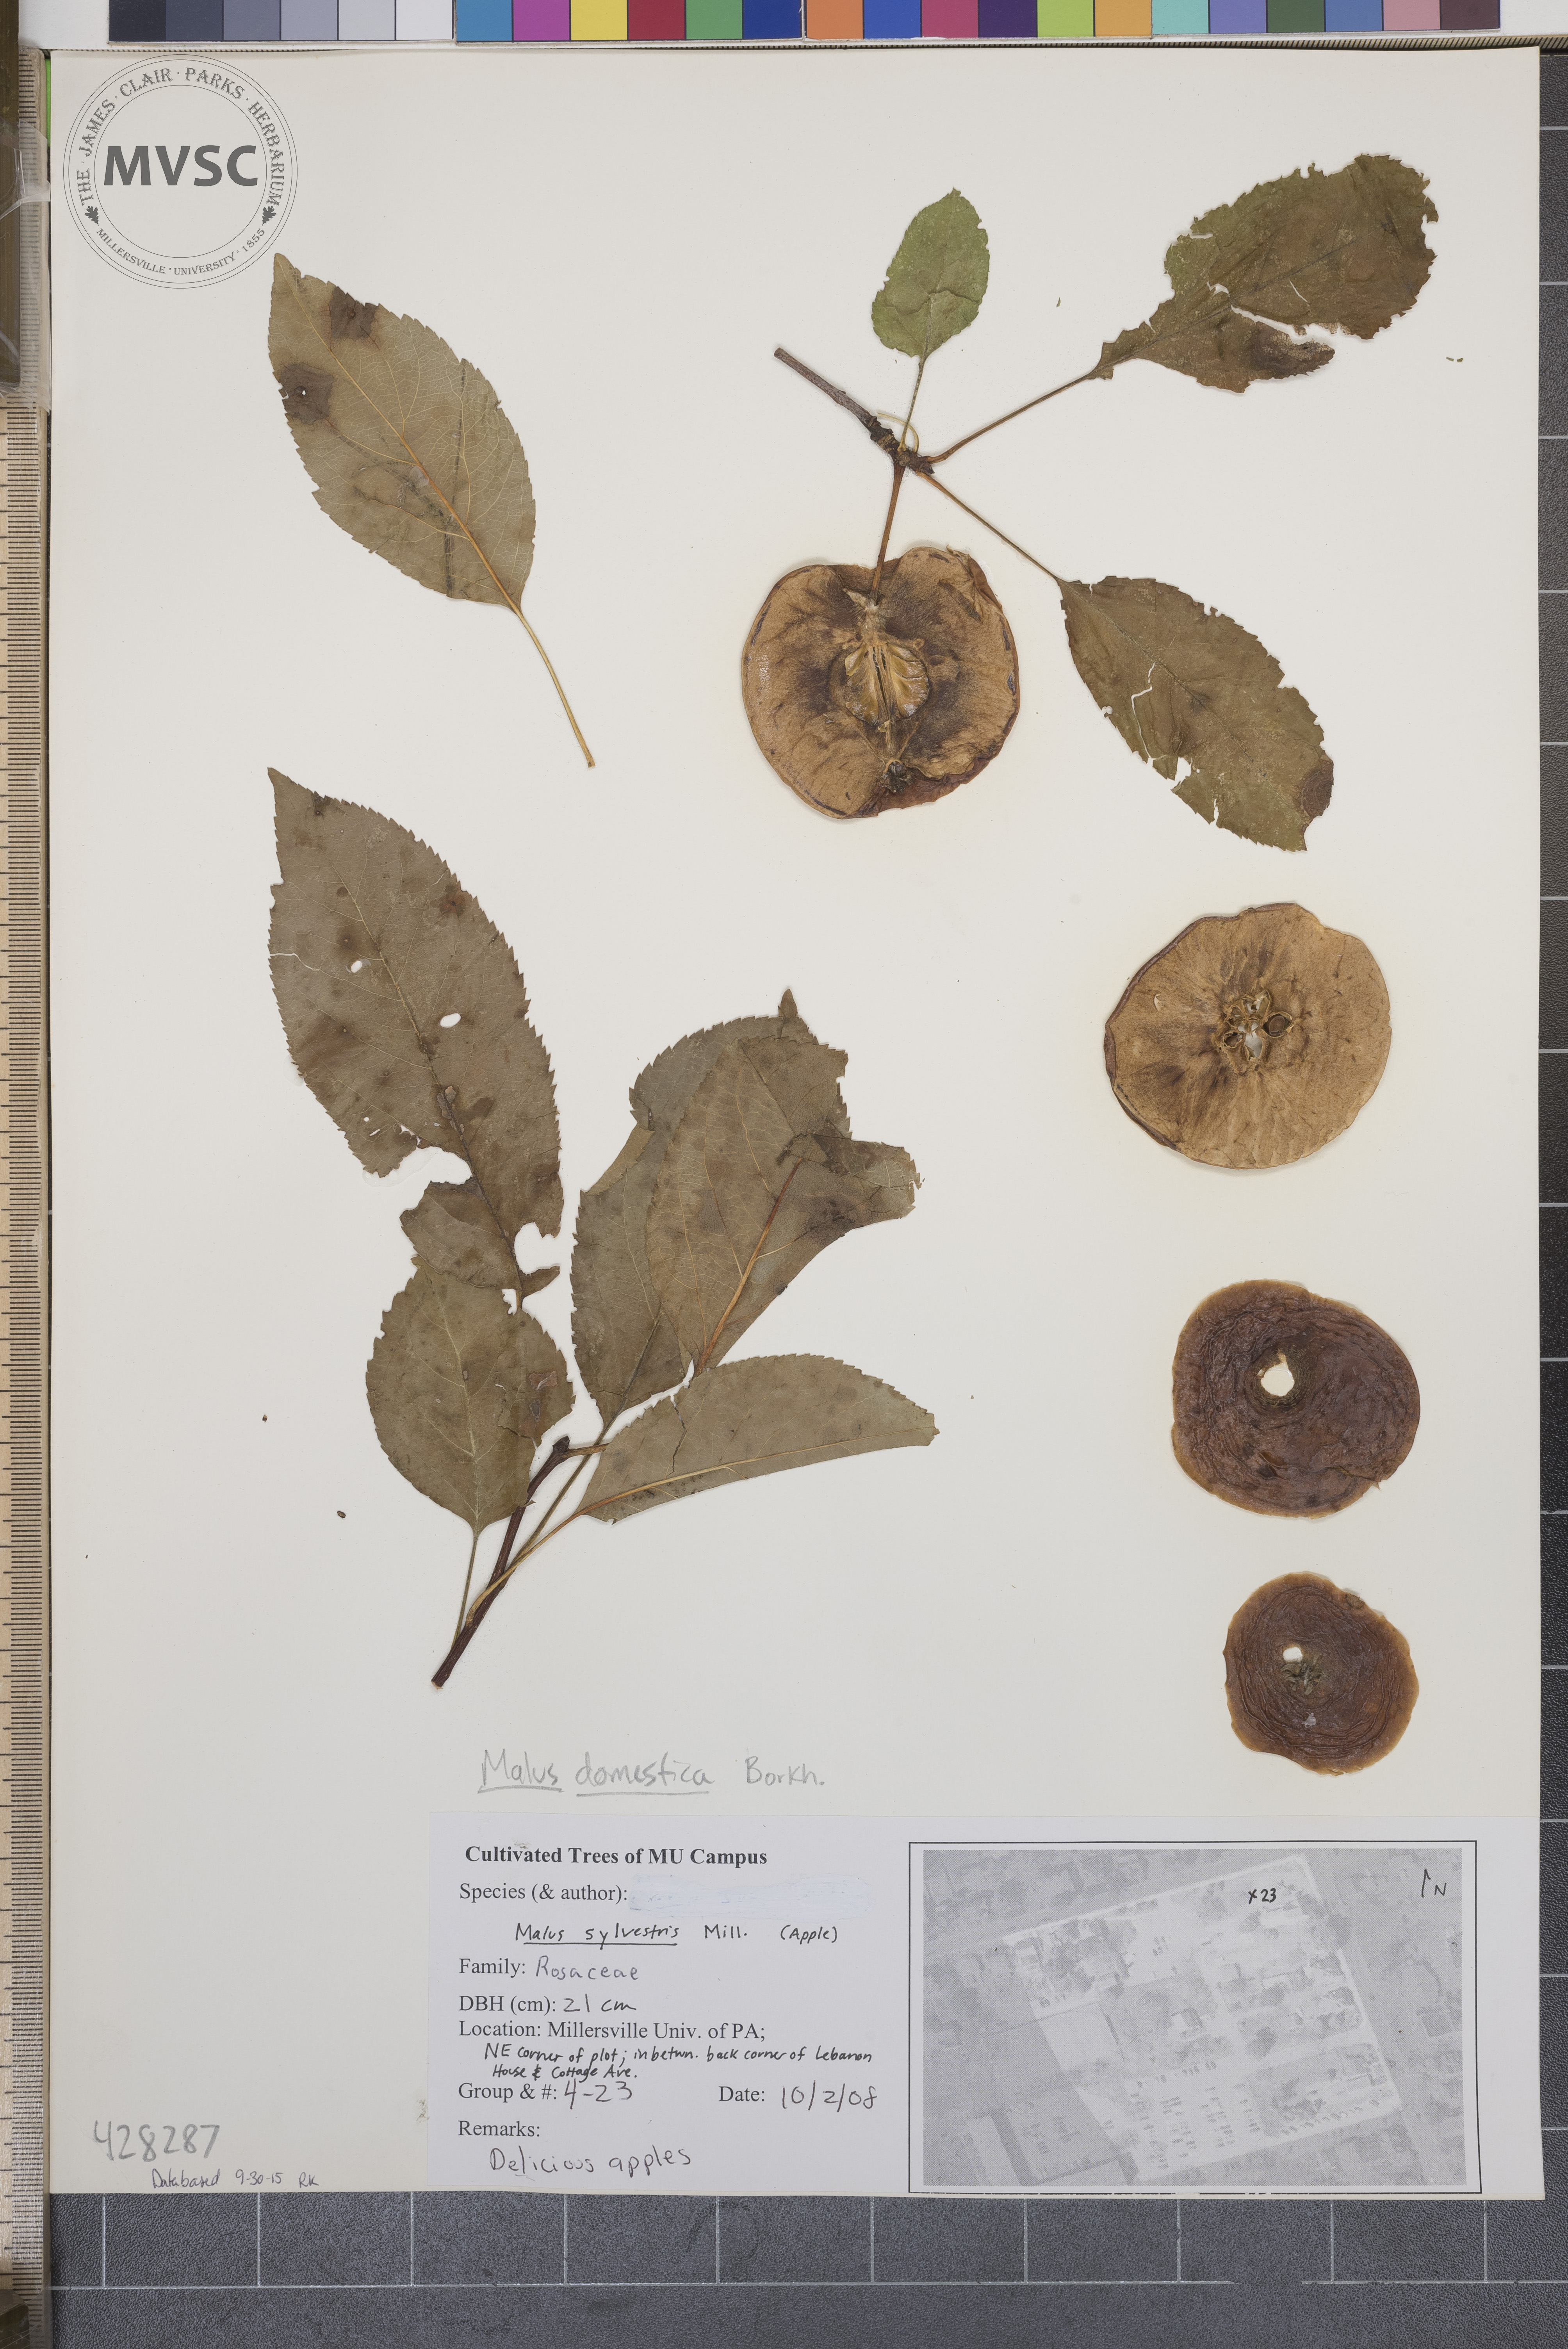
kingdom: Plantae
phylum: Tracheophyta
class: Magnoliopsida
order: Rosales
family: Rosaceae
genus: Malus
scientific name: Malus domestica
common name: Apple
